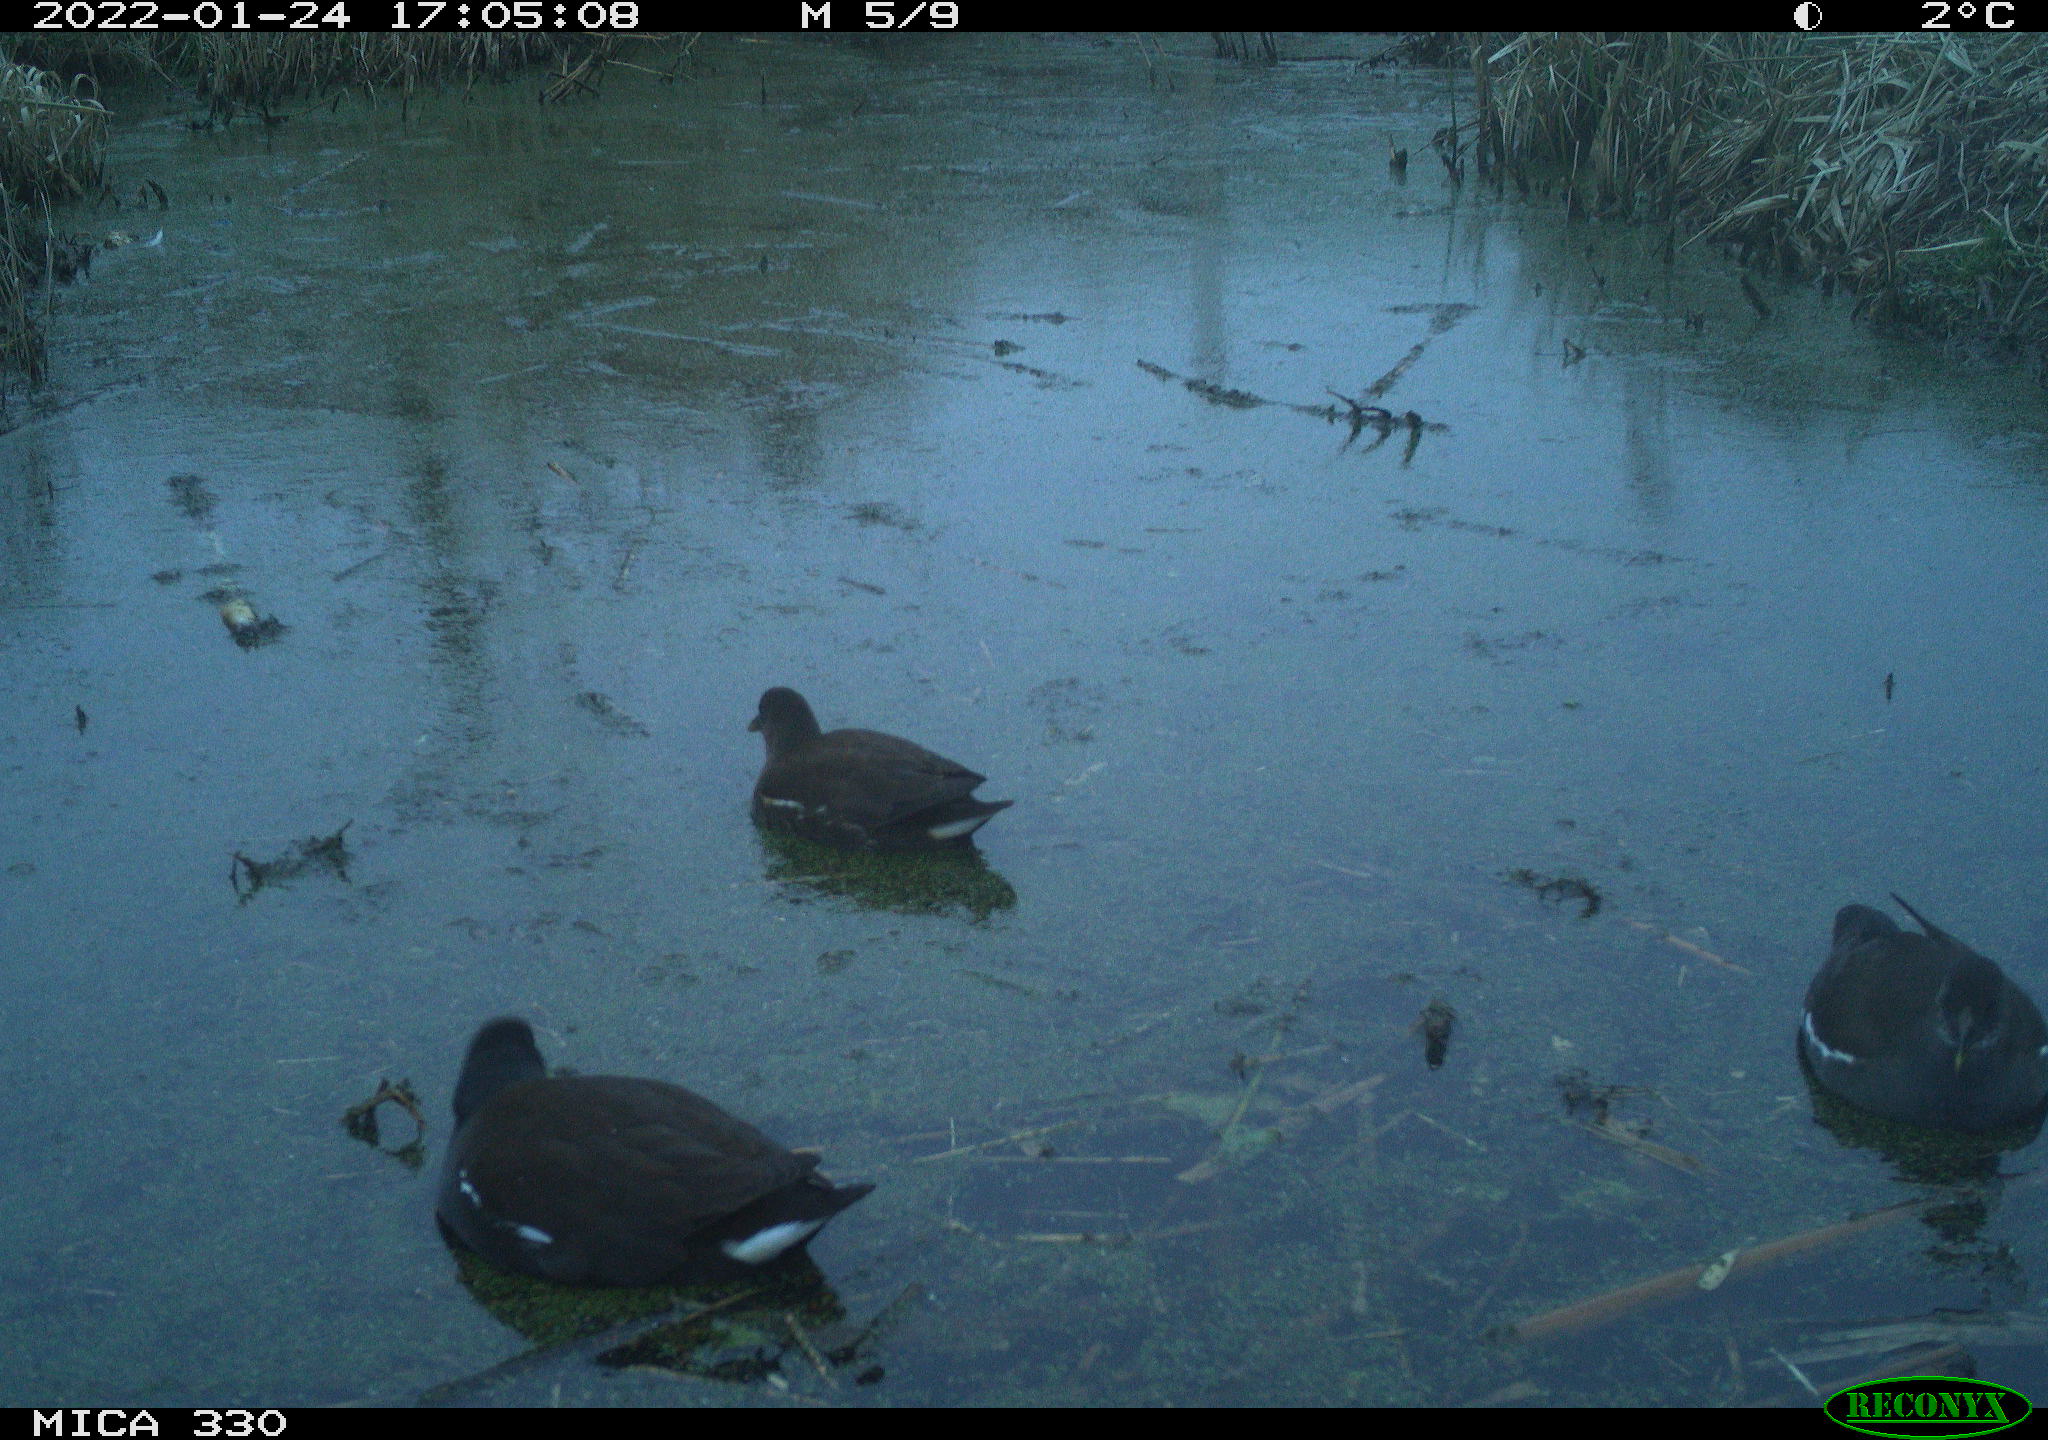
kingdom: Animalia
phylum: Chordata
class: Aves
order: Gruiformes
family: Rallidae
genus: Gallinula
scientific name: Gallinula chloropus
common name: Common moorhen
